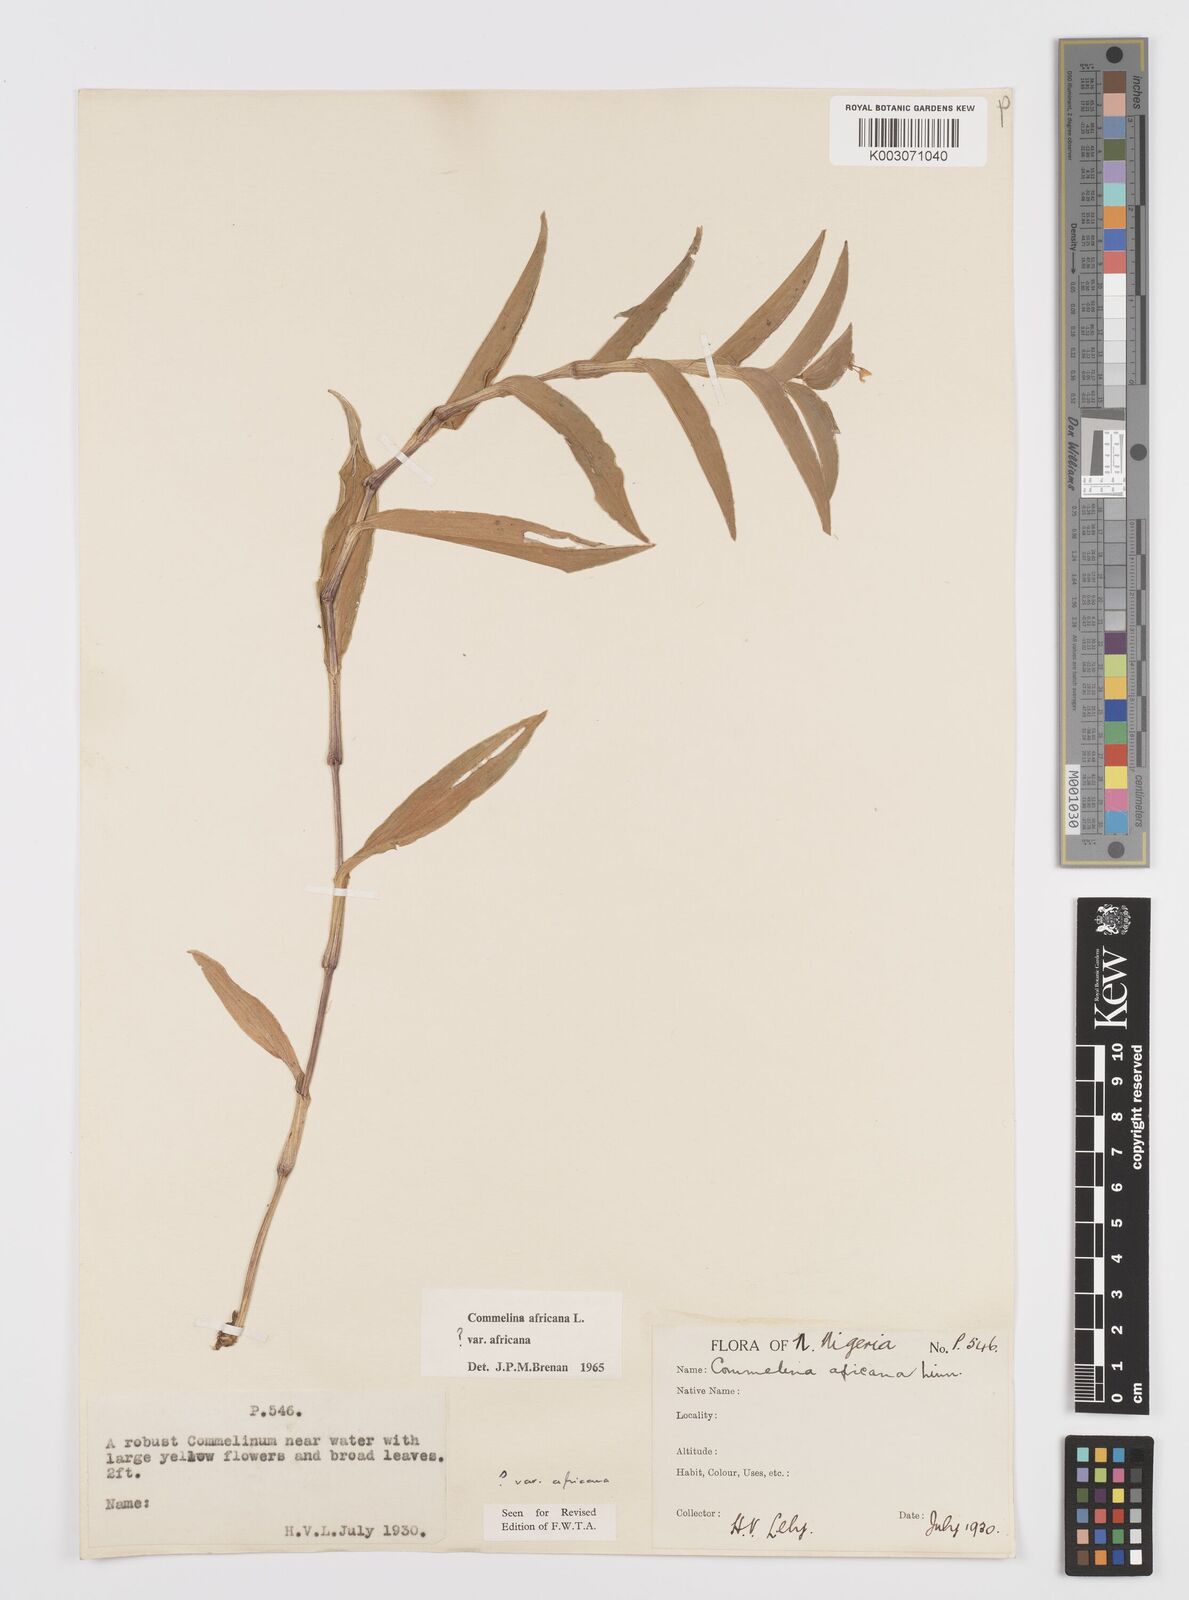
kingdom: Plantae
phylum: Tracheophyta
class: Liliopsida
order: Commelinales
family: Commelinaceae
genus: Commelina
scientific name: Commelina africana
